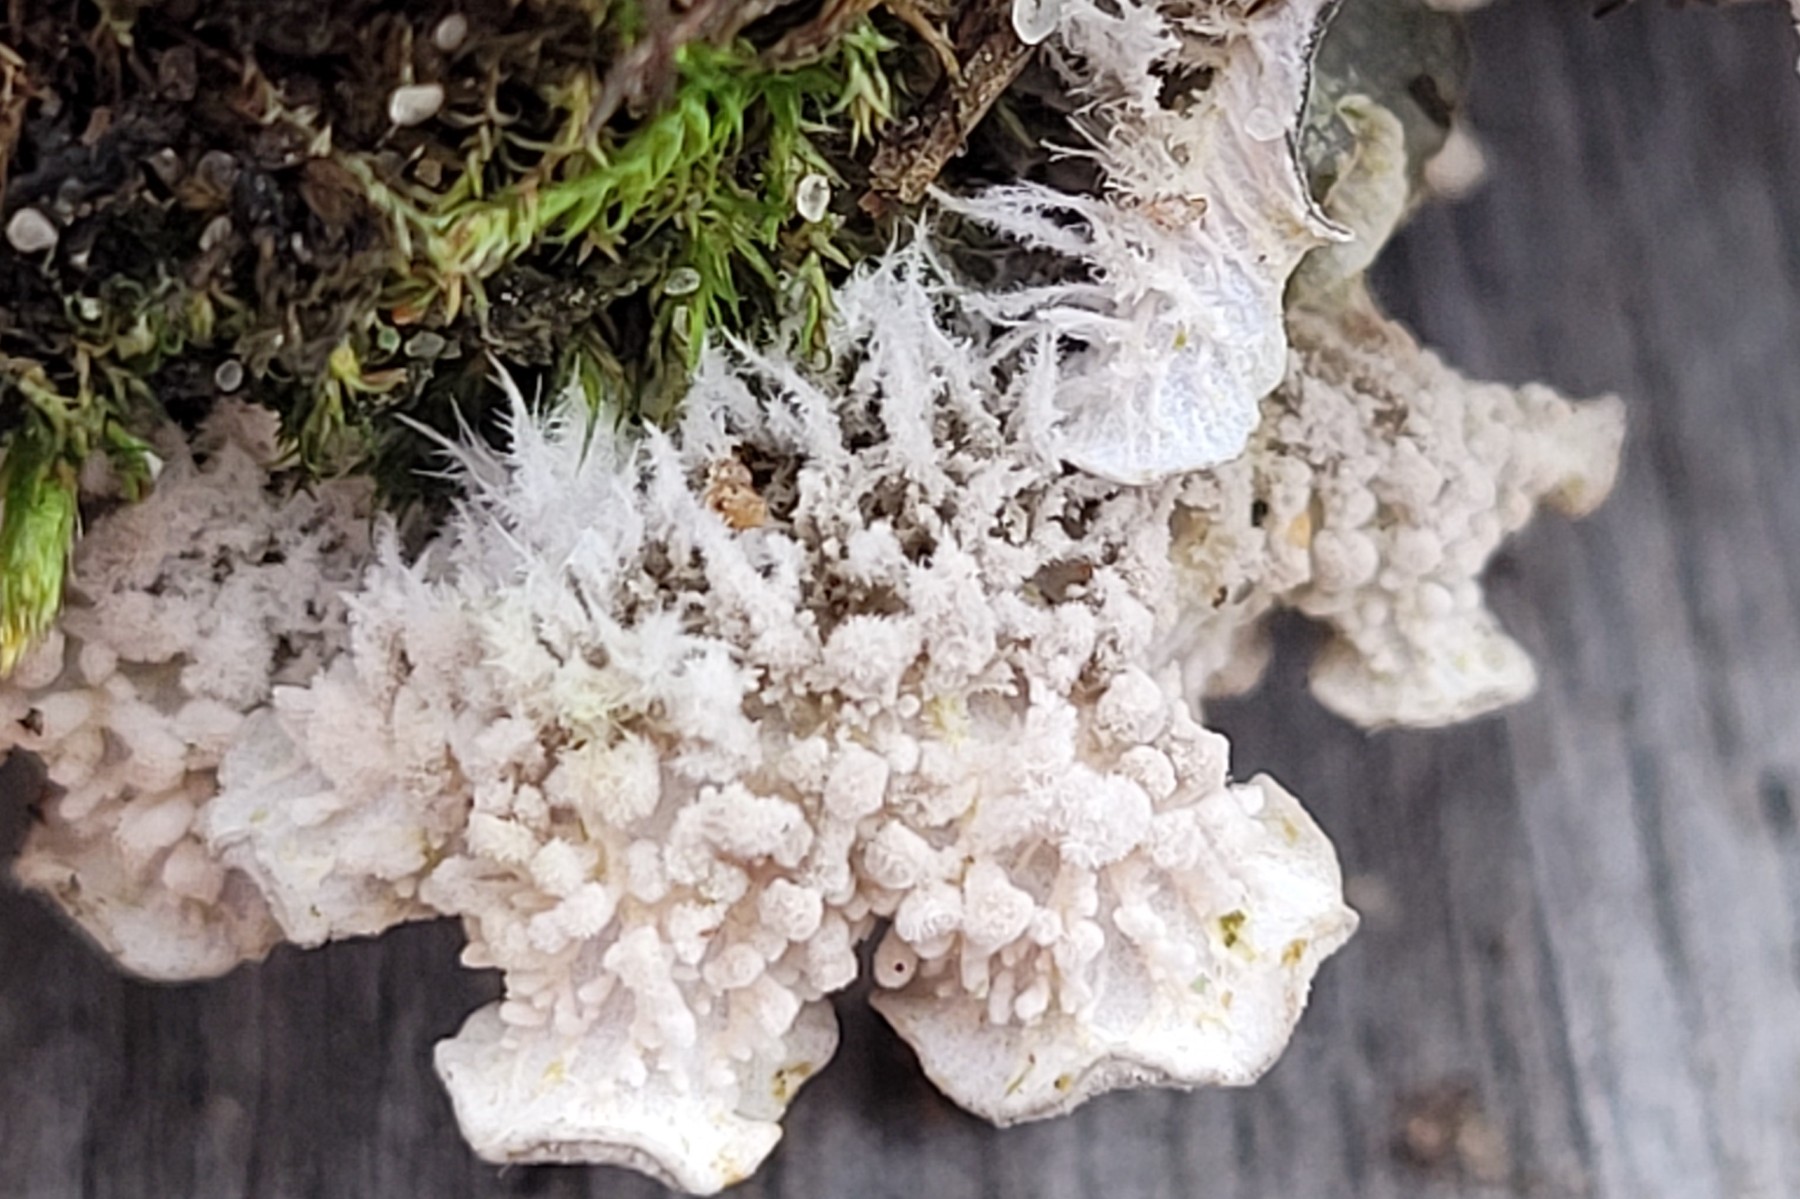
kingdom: Fungi
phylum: Ascomycota
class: Lecanoromycetes
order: Peltigerales
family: Peltigeraceae
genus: Peltigera
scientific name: Peltigera canina
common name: hunde-skjoldlav
